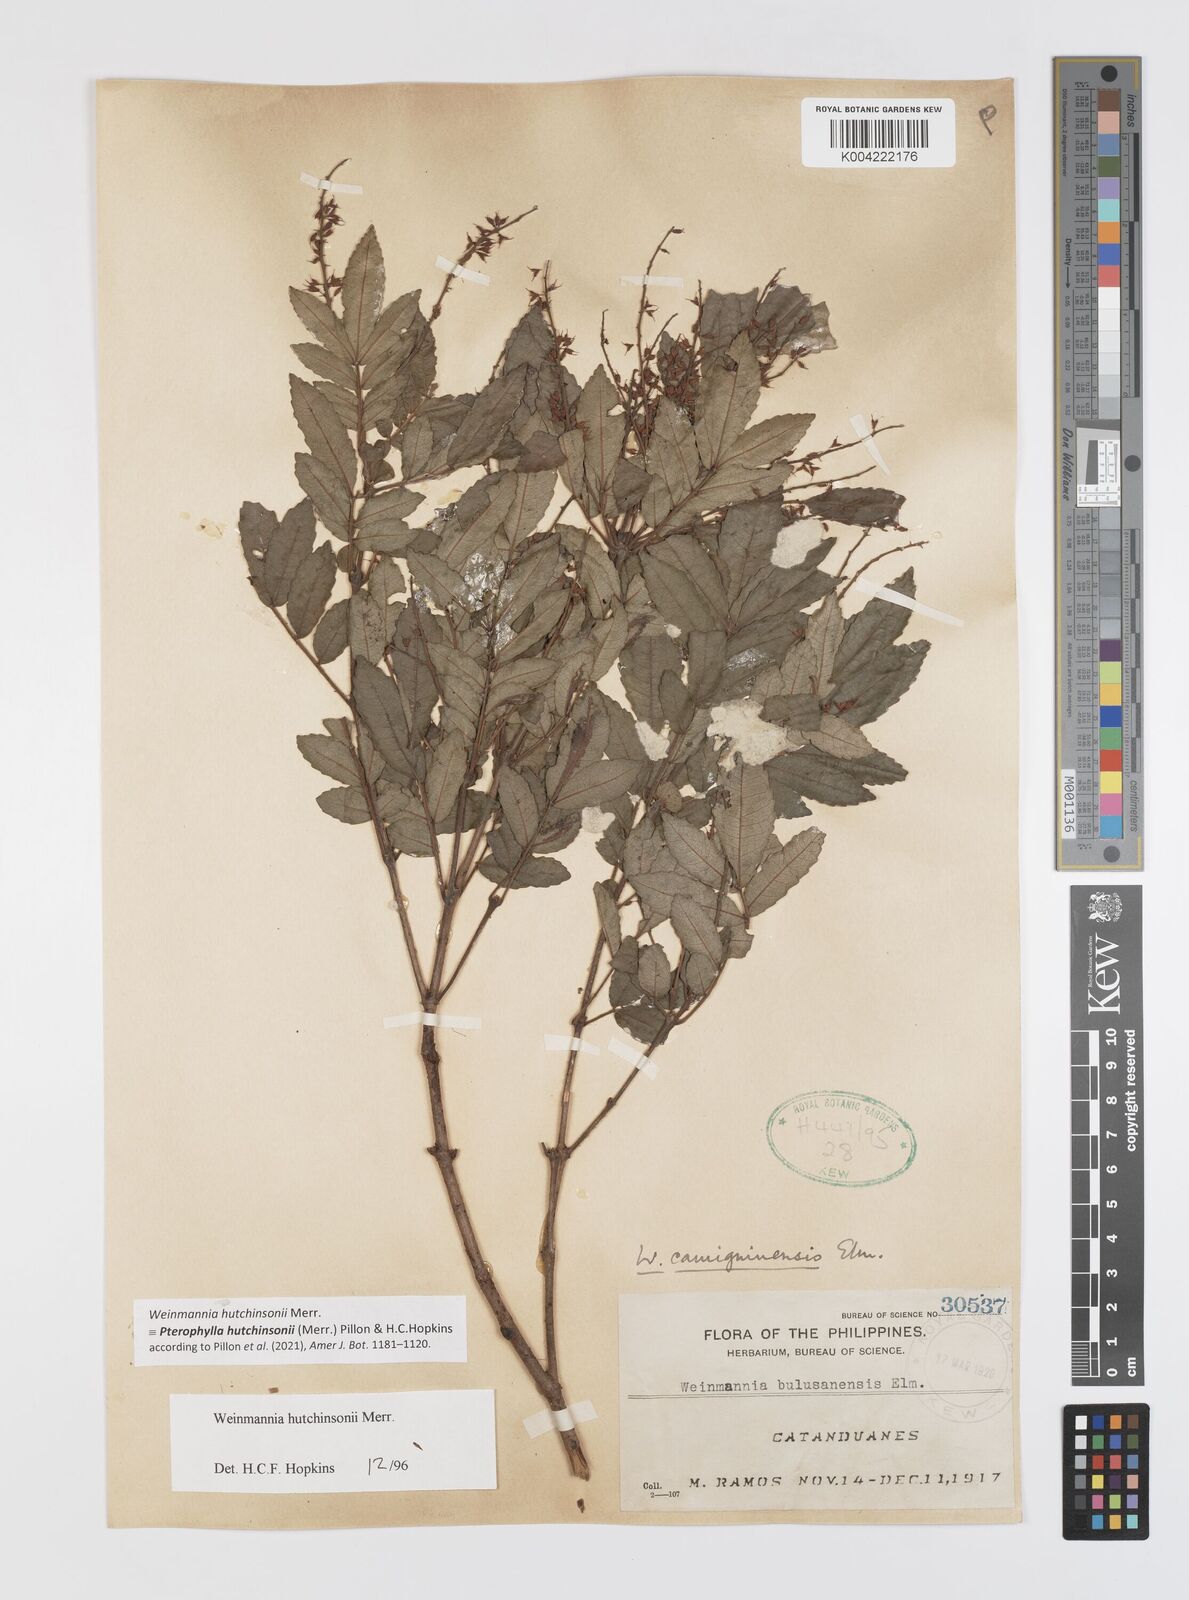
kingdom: Plantae
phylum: Tracheophyta
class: Magnoliopsida
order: Oxalidales
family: Cunoniaceae
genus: Pterophylla
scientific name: Pterophylla hutchinsonii
